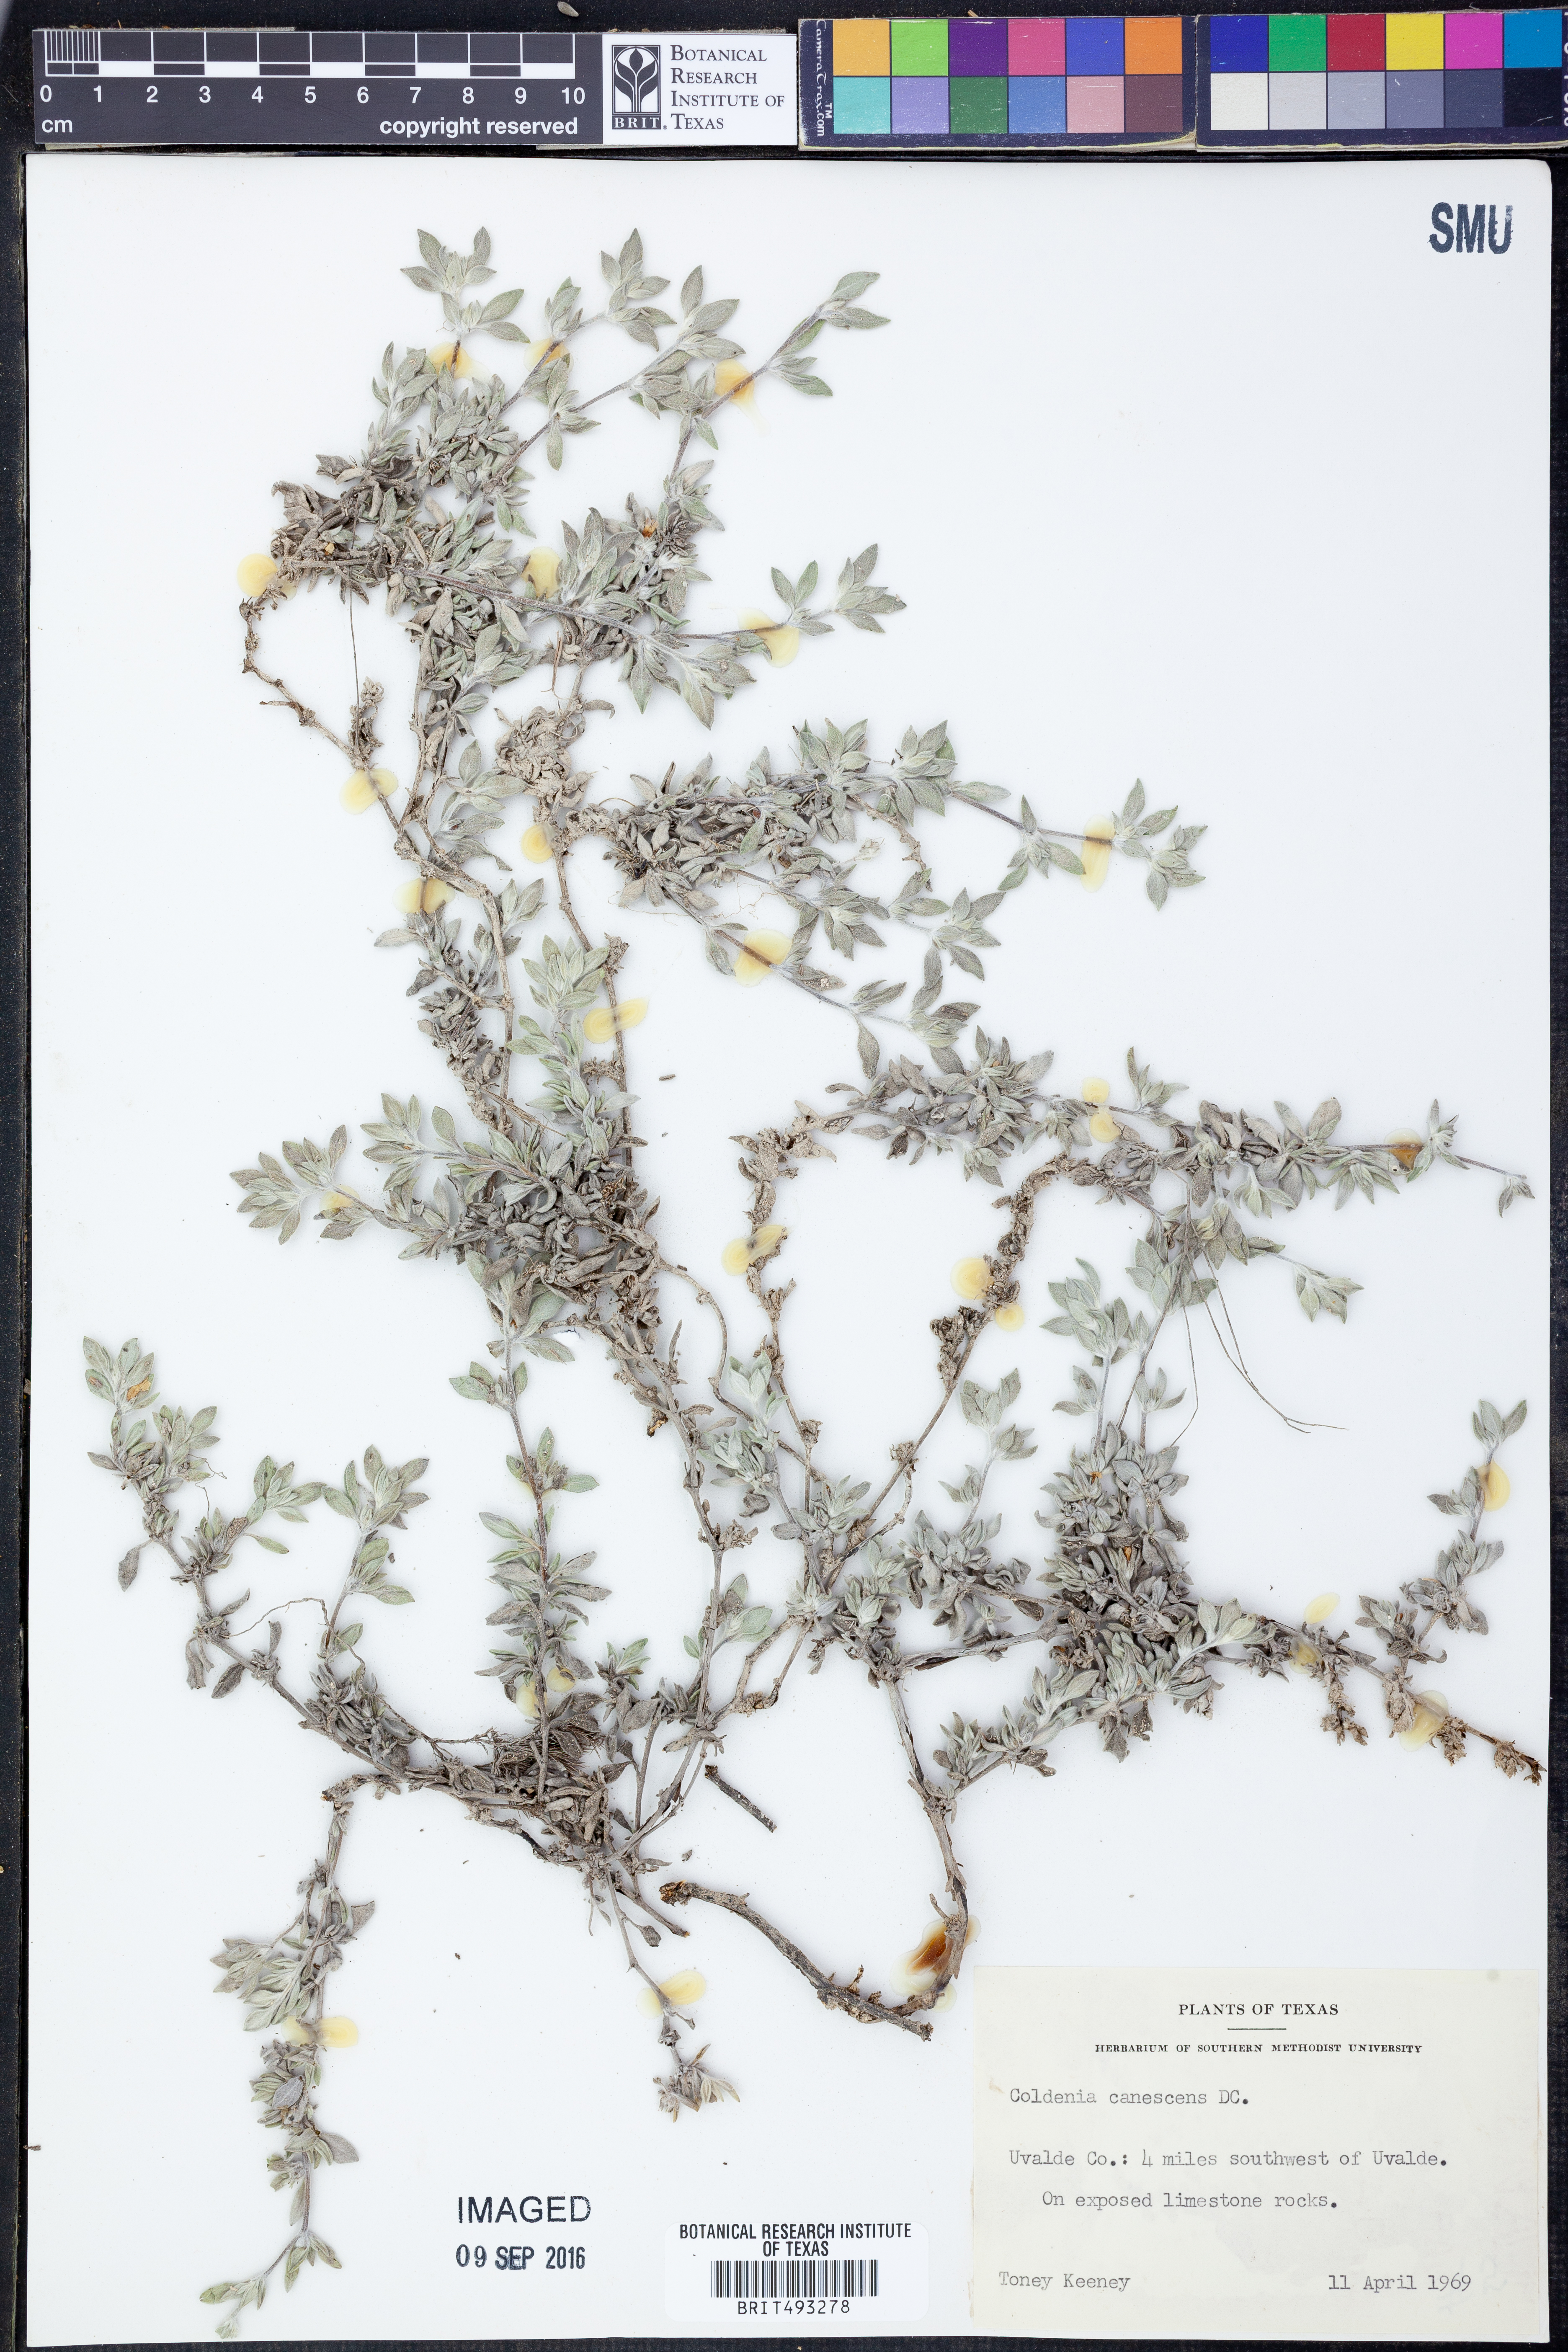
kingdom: Plantae
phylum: Tracheophyta
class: Magnoliopsida
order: Boraginales
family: Ehretiaceae
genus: Tiquilia
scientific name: Tiquilia canescens
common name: Hairy tiquilia
